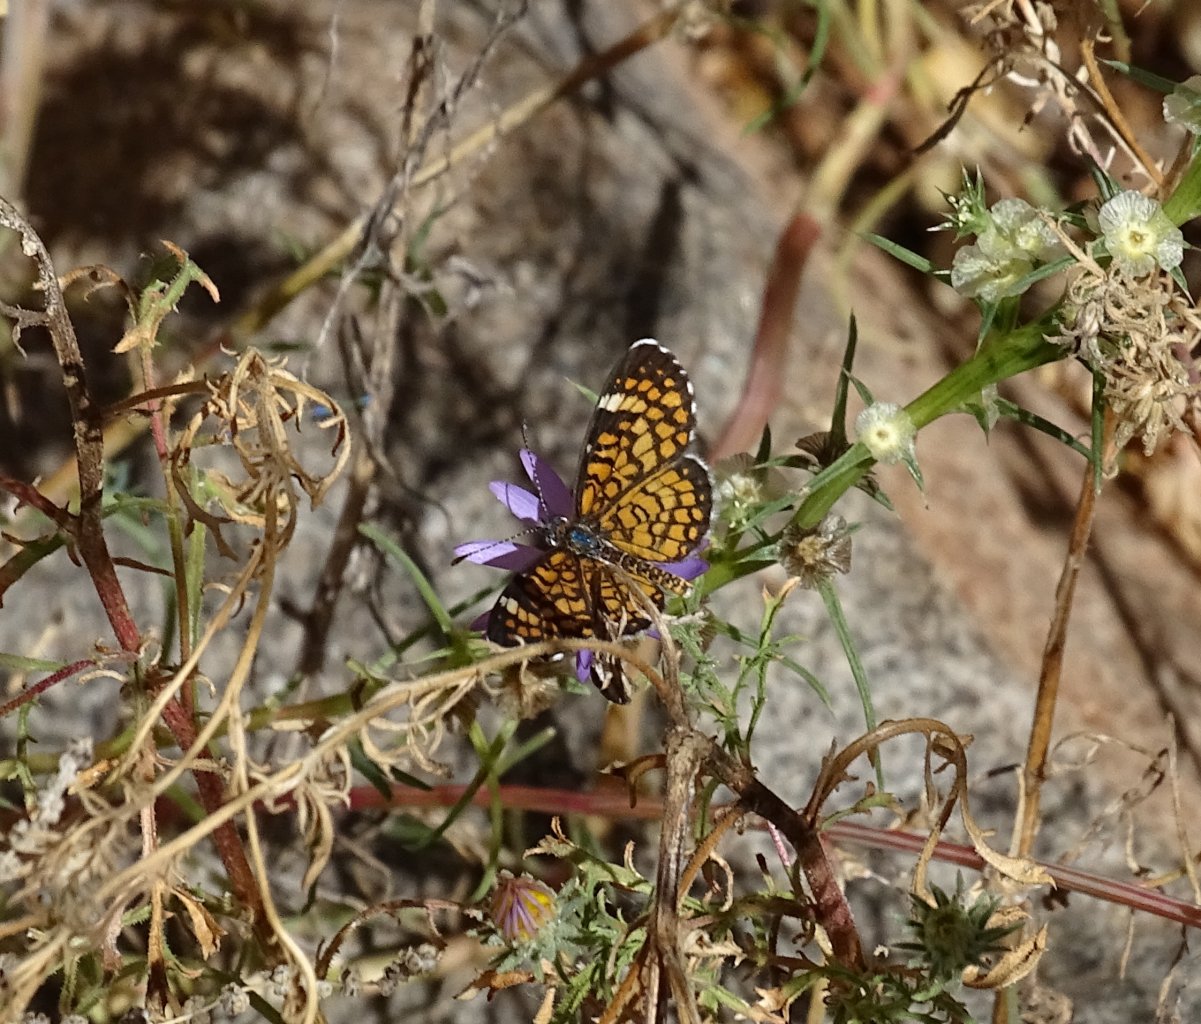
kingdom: Animalia
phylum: Arthropoda
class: Insecta
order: Lepidoptera
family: Nymphalidae
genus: Dymasia
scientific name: Dymasia dymas
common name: Tiny Checkerspot
